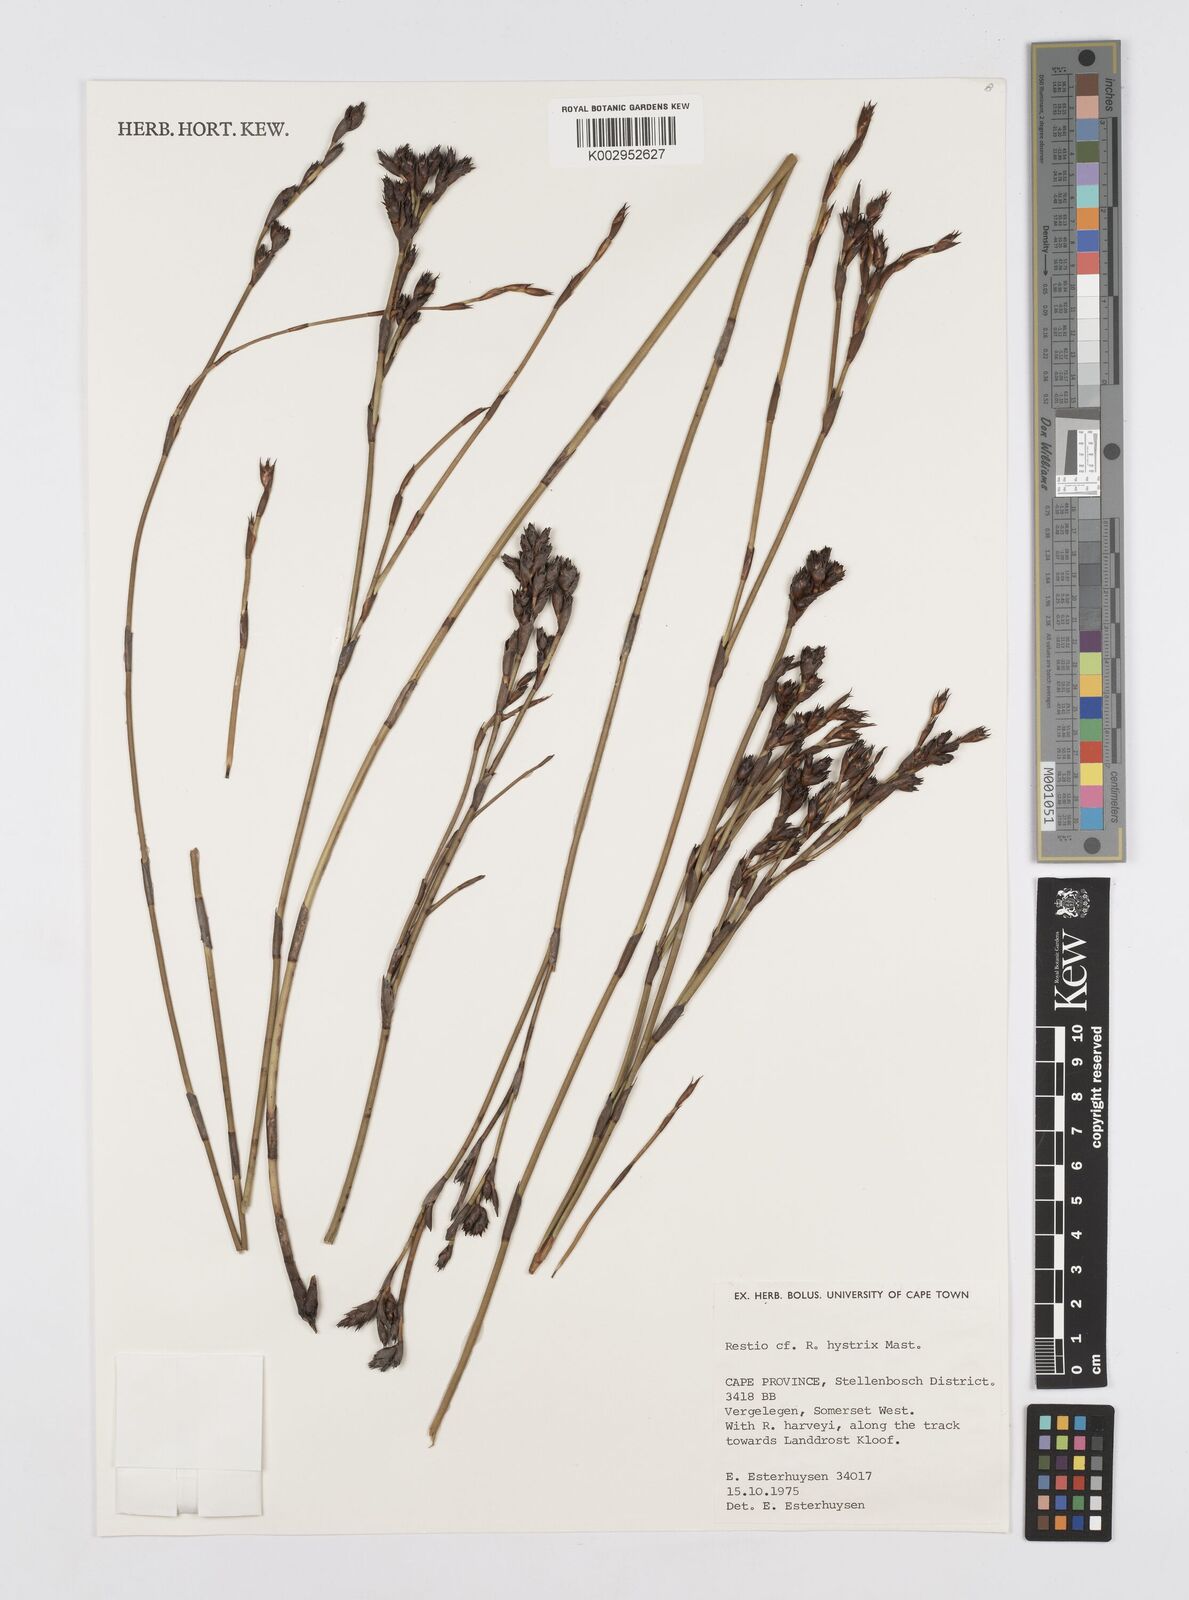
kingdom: Plantae
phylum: Tracheophyta
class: Liliopsida
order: Poales
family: Restionaceae
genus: Restio
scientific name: Restio hystrix
